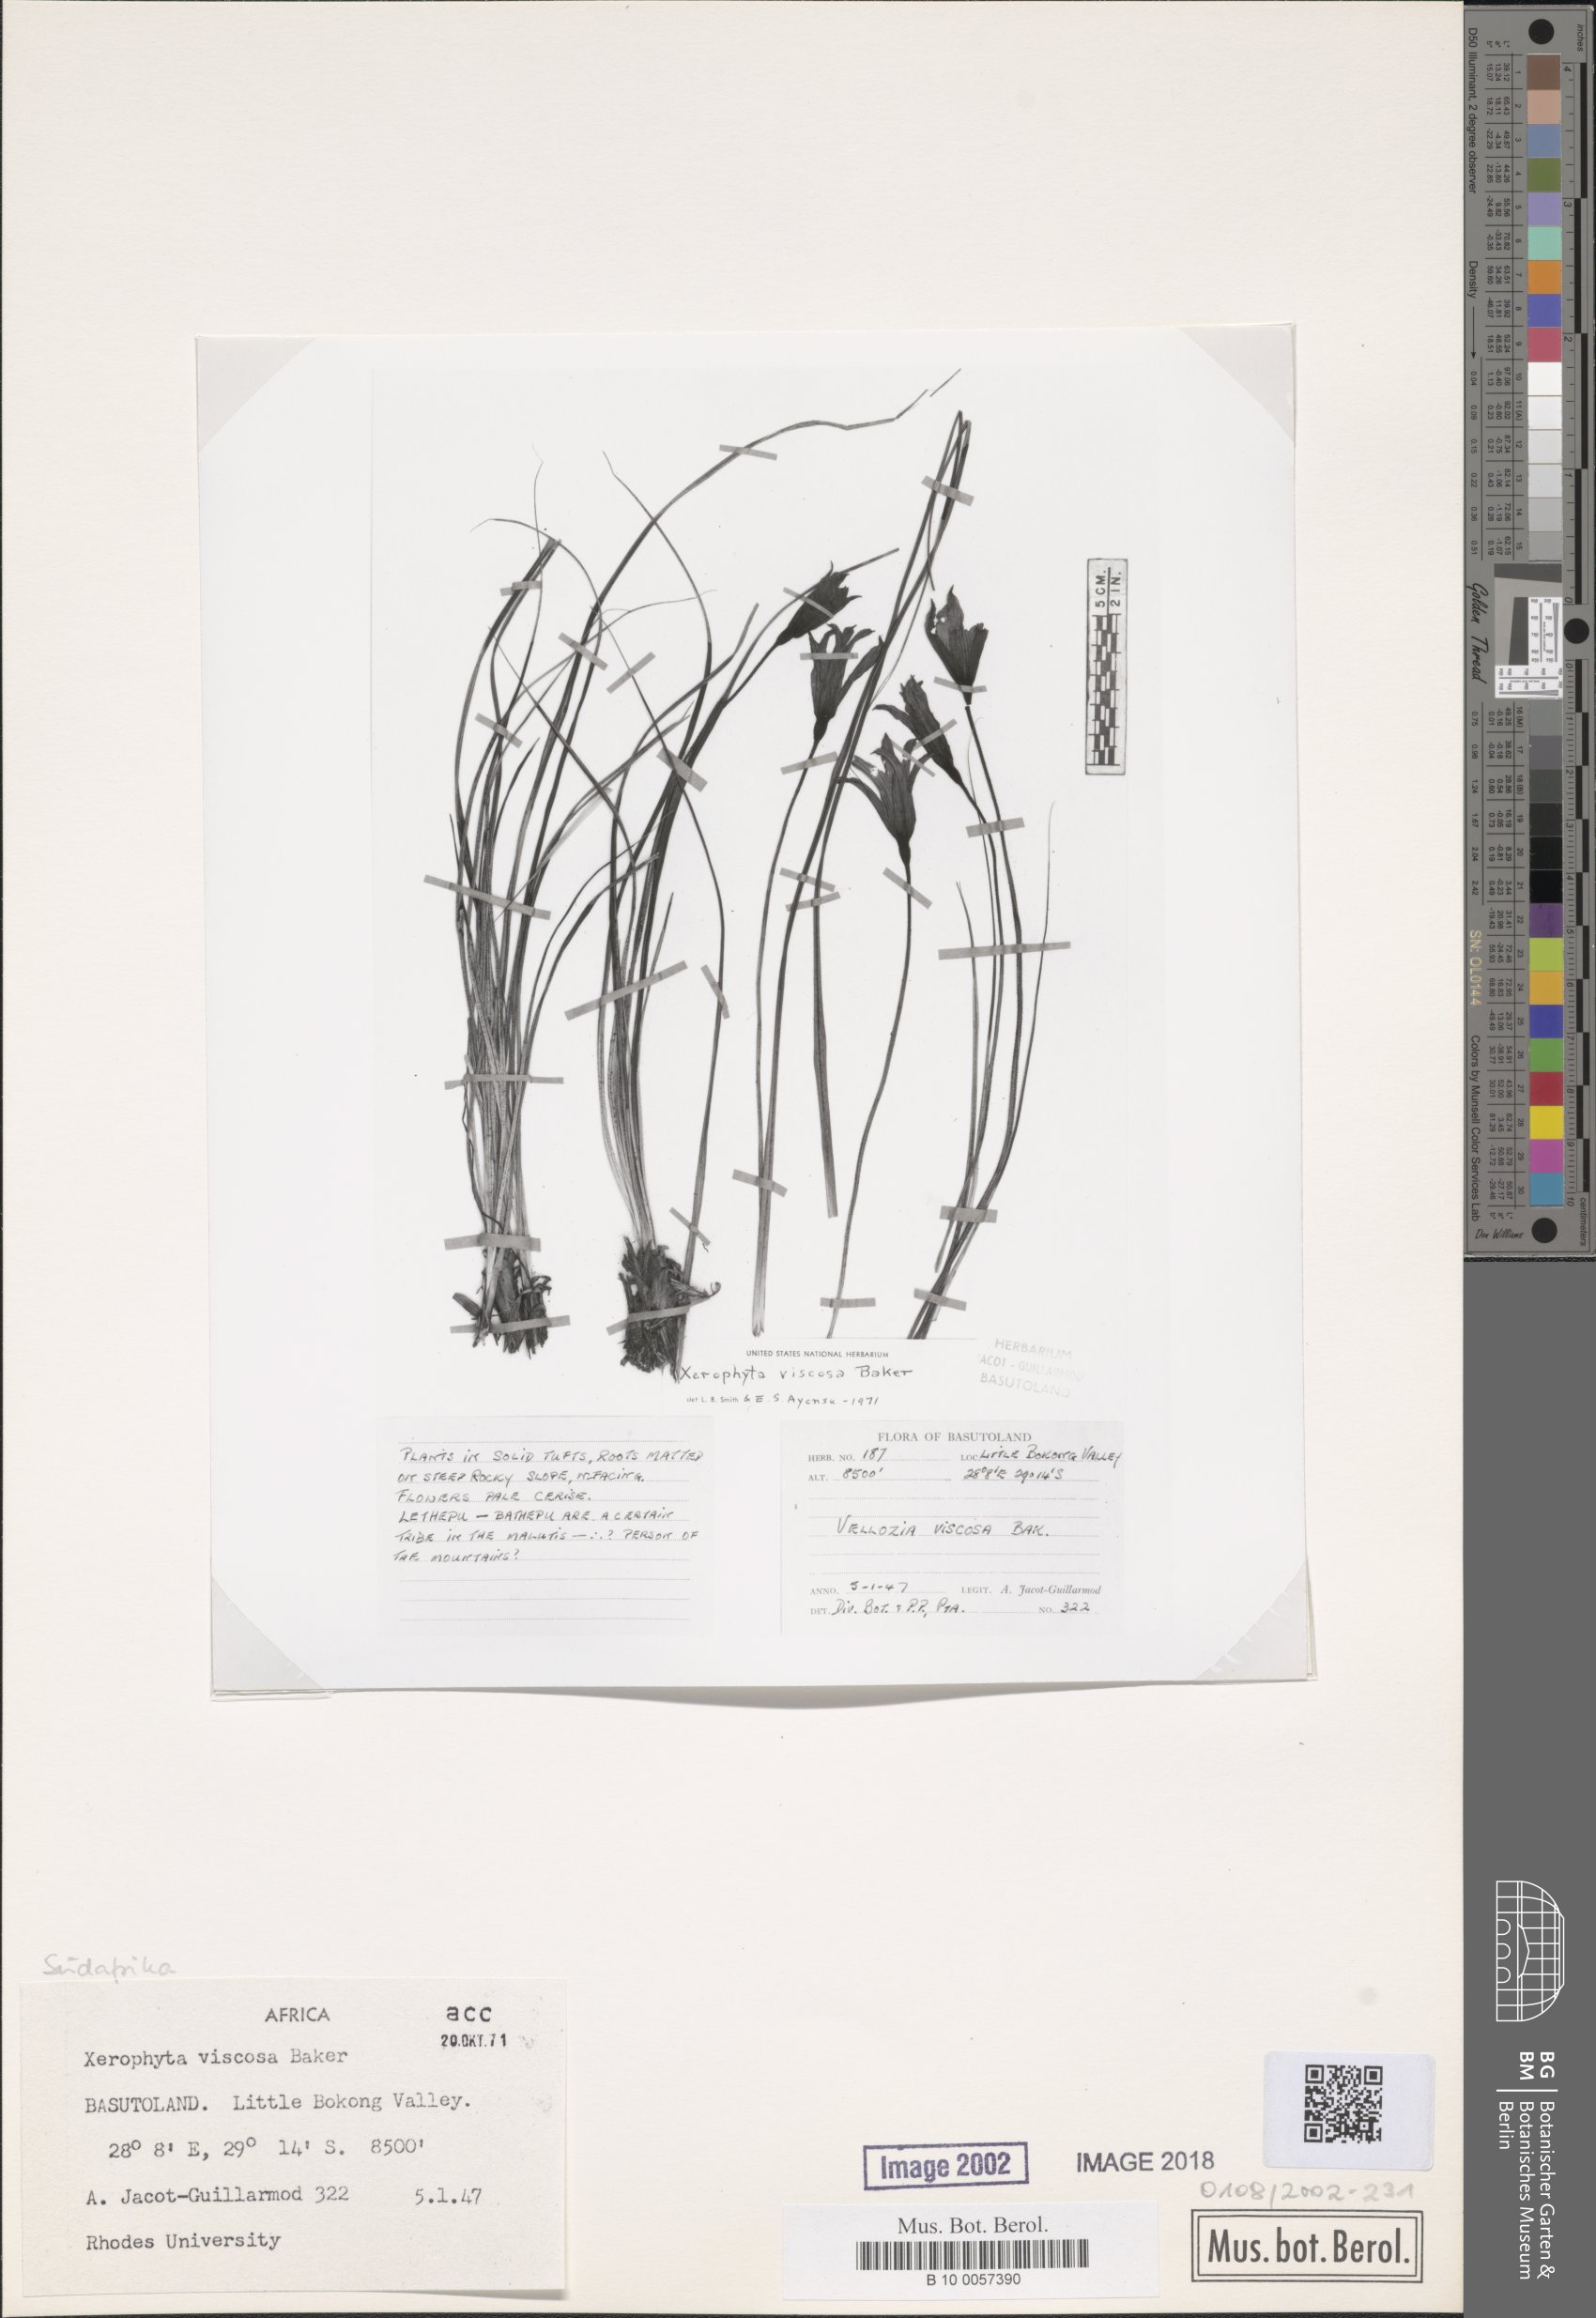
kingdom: Plantae
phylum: Tracheophyta
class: Liliopsida
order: Pandanales
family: Velloziaceae
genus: Xerophyta
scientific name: Xerophyta viscosa
